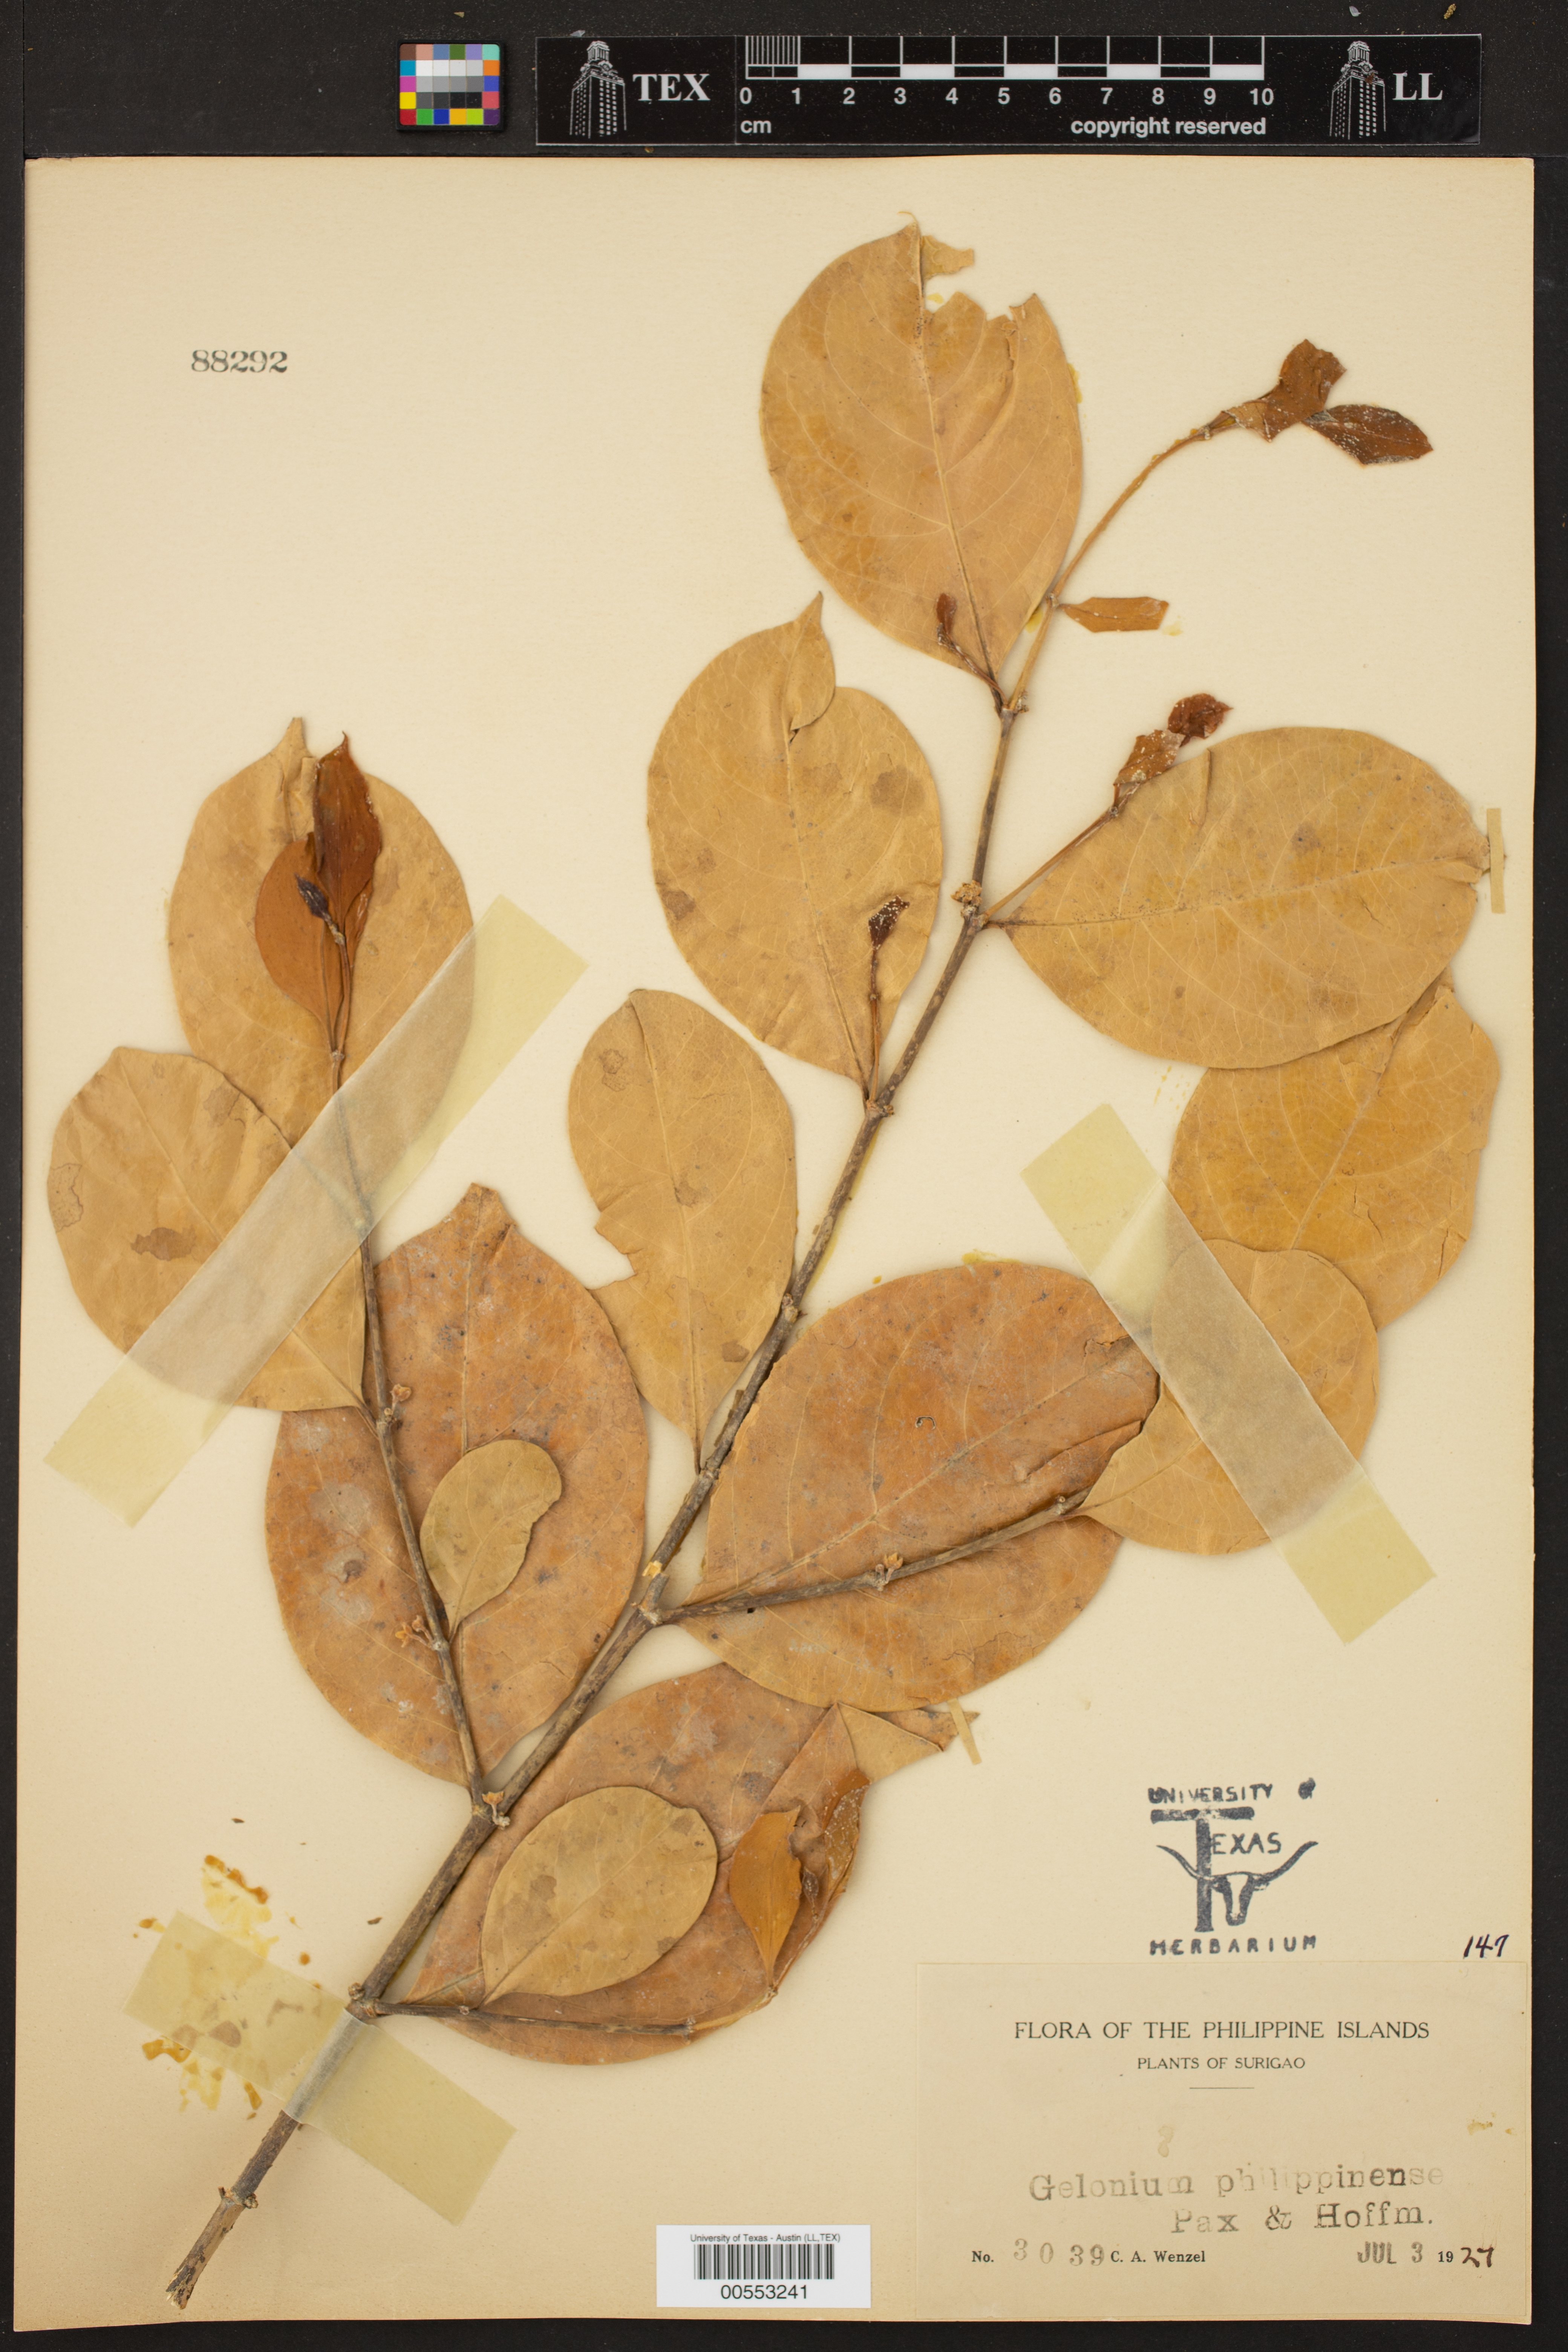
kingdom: Plantae
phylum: Tracheophyta
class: Magnoliopsida
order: Sapindales
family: Sapindaceae
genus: Matayba
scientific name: Matayba
